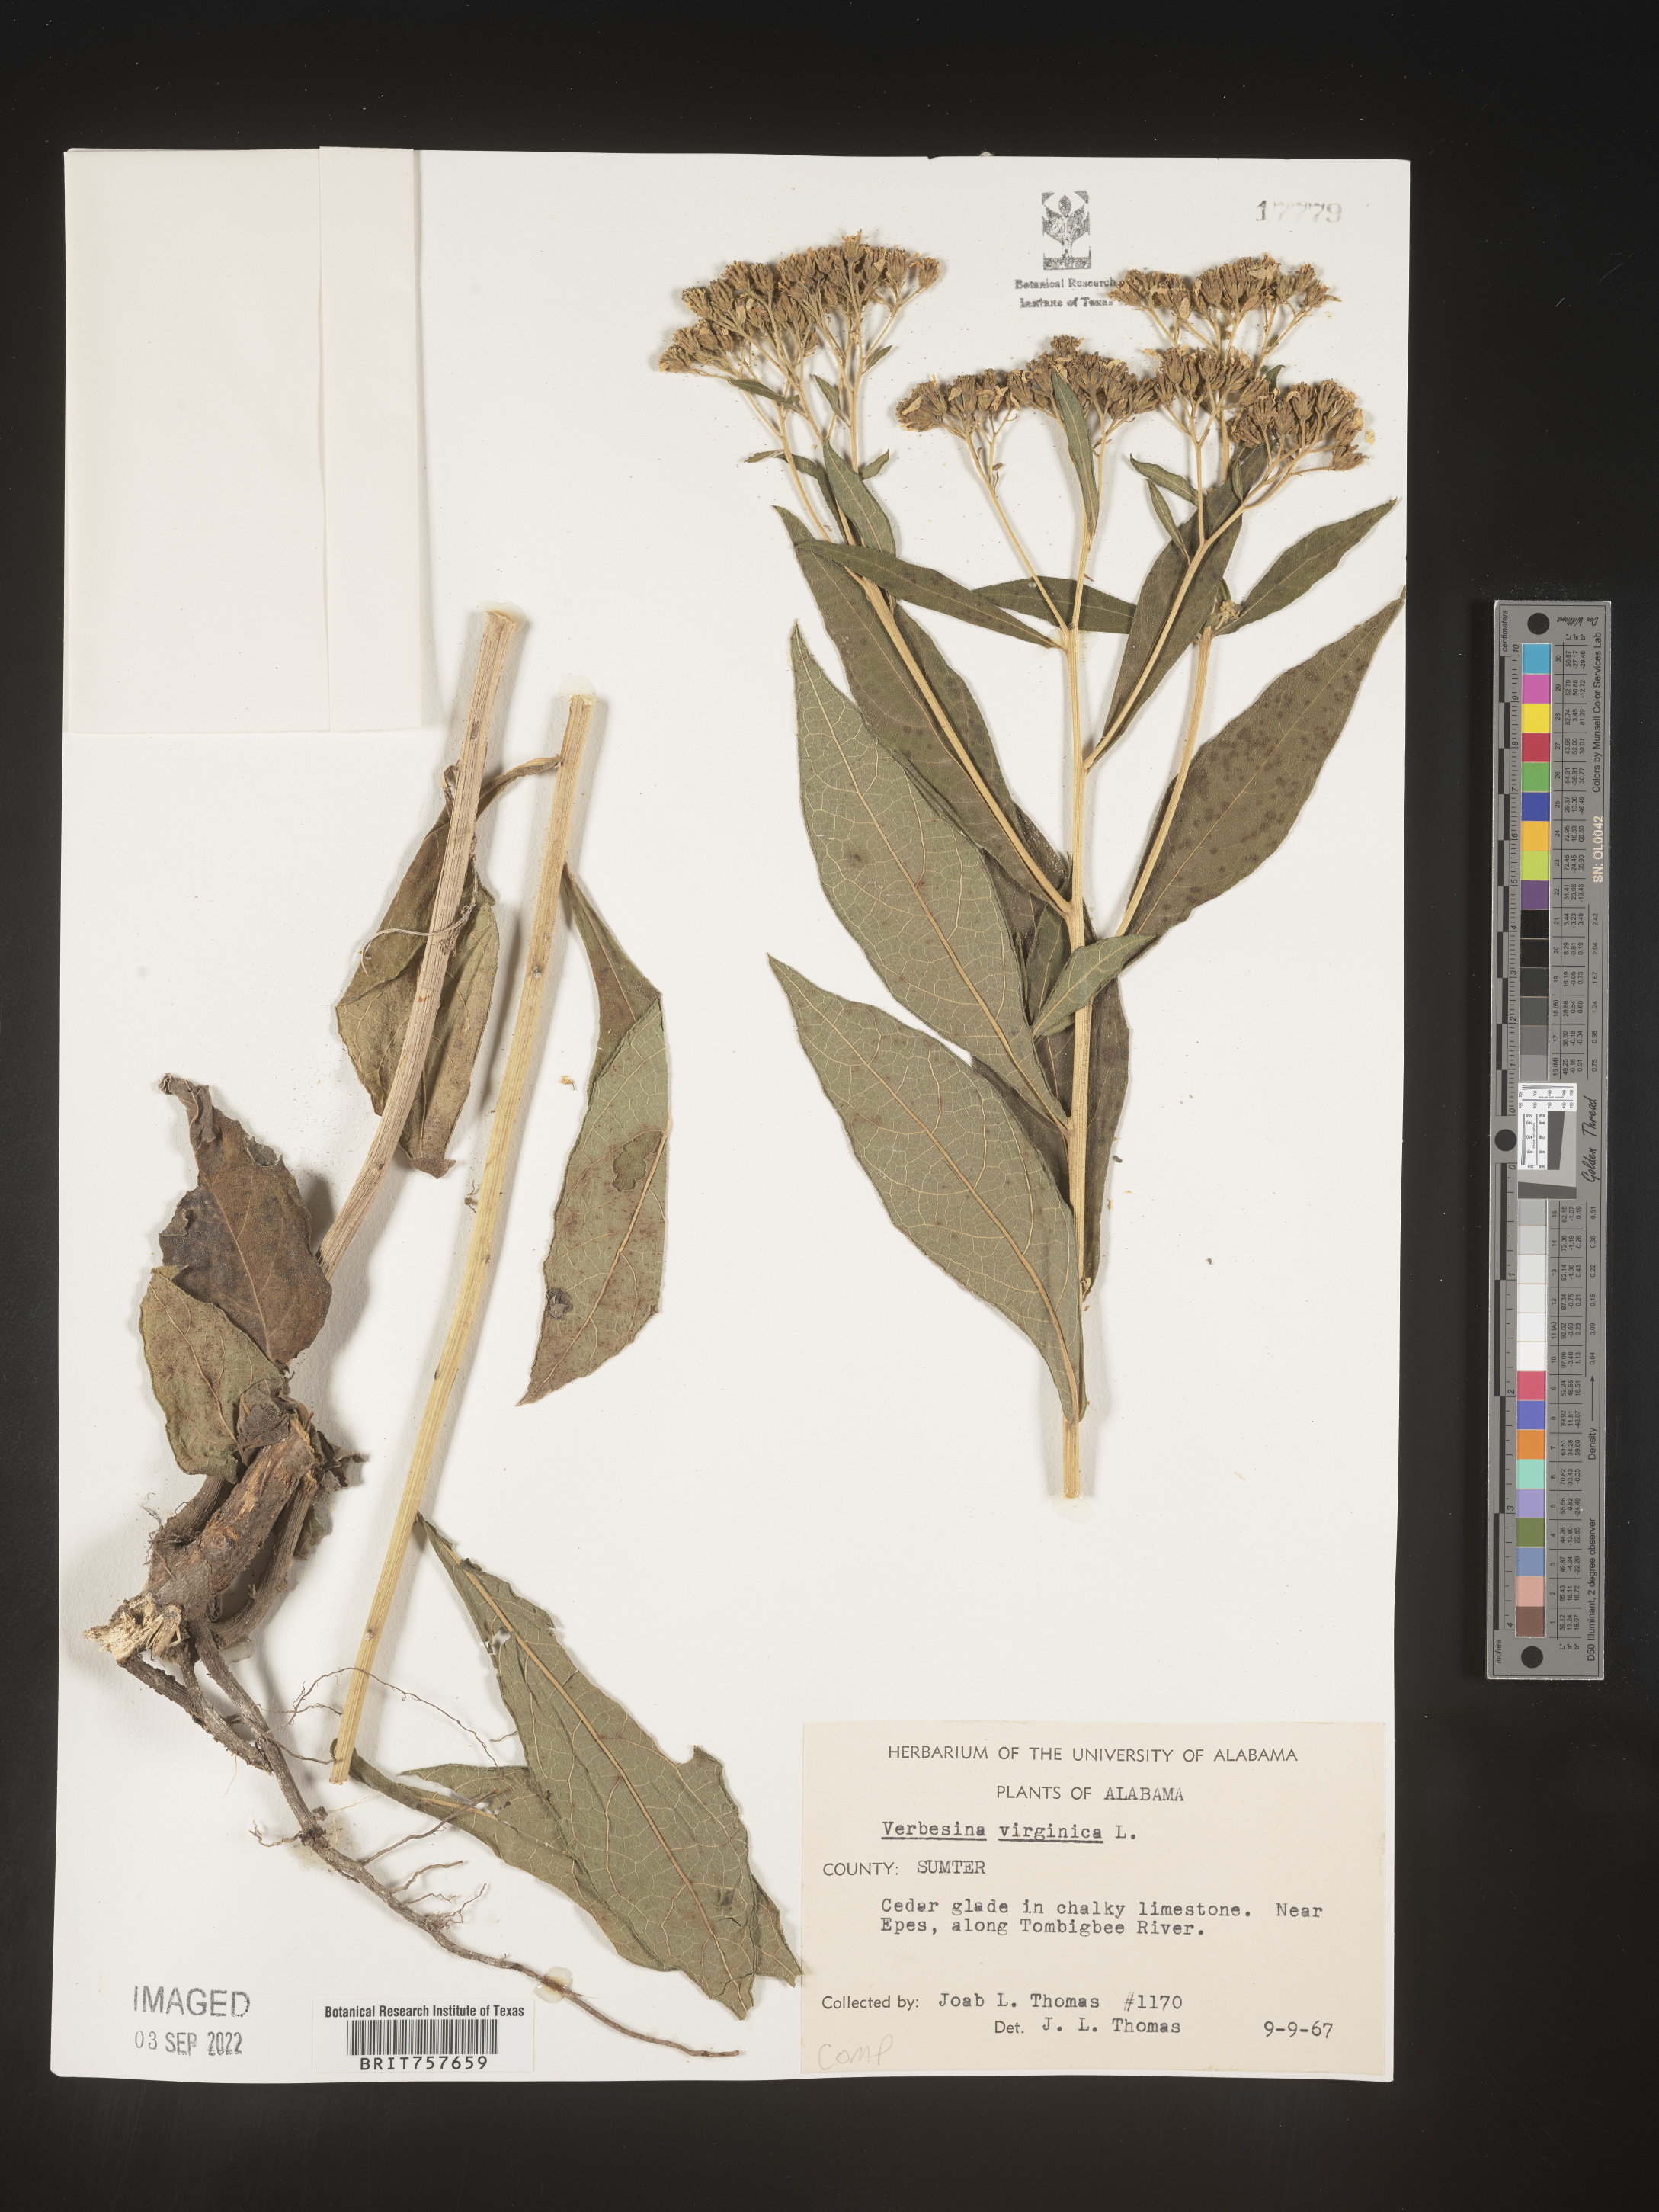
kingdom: Plantae
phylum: Tracheophyta
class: Magnoliopsida
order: Asterales
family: Asteraceae
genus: Verbesina
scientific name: Verbesina virginica
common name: Frostweed
